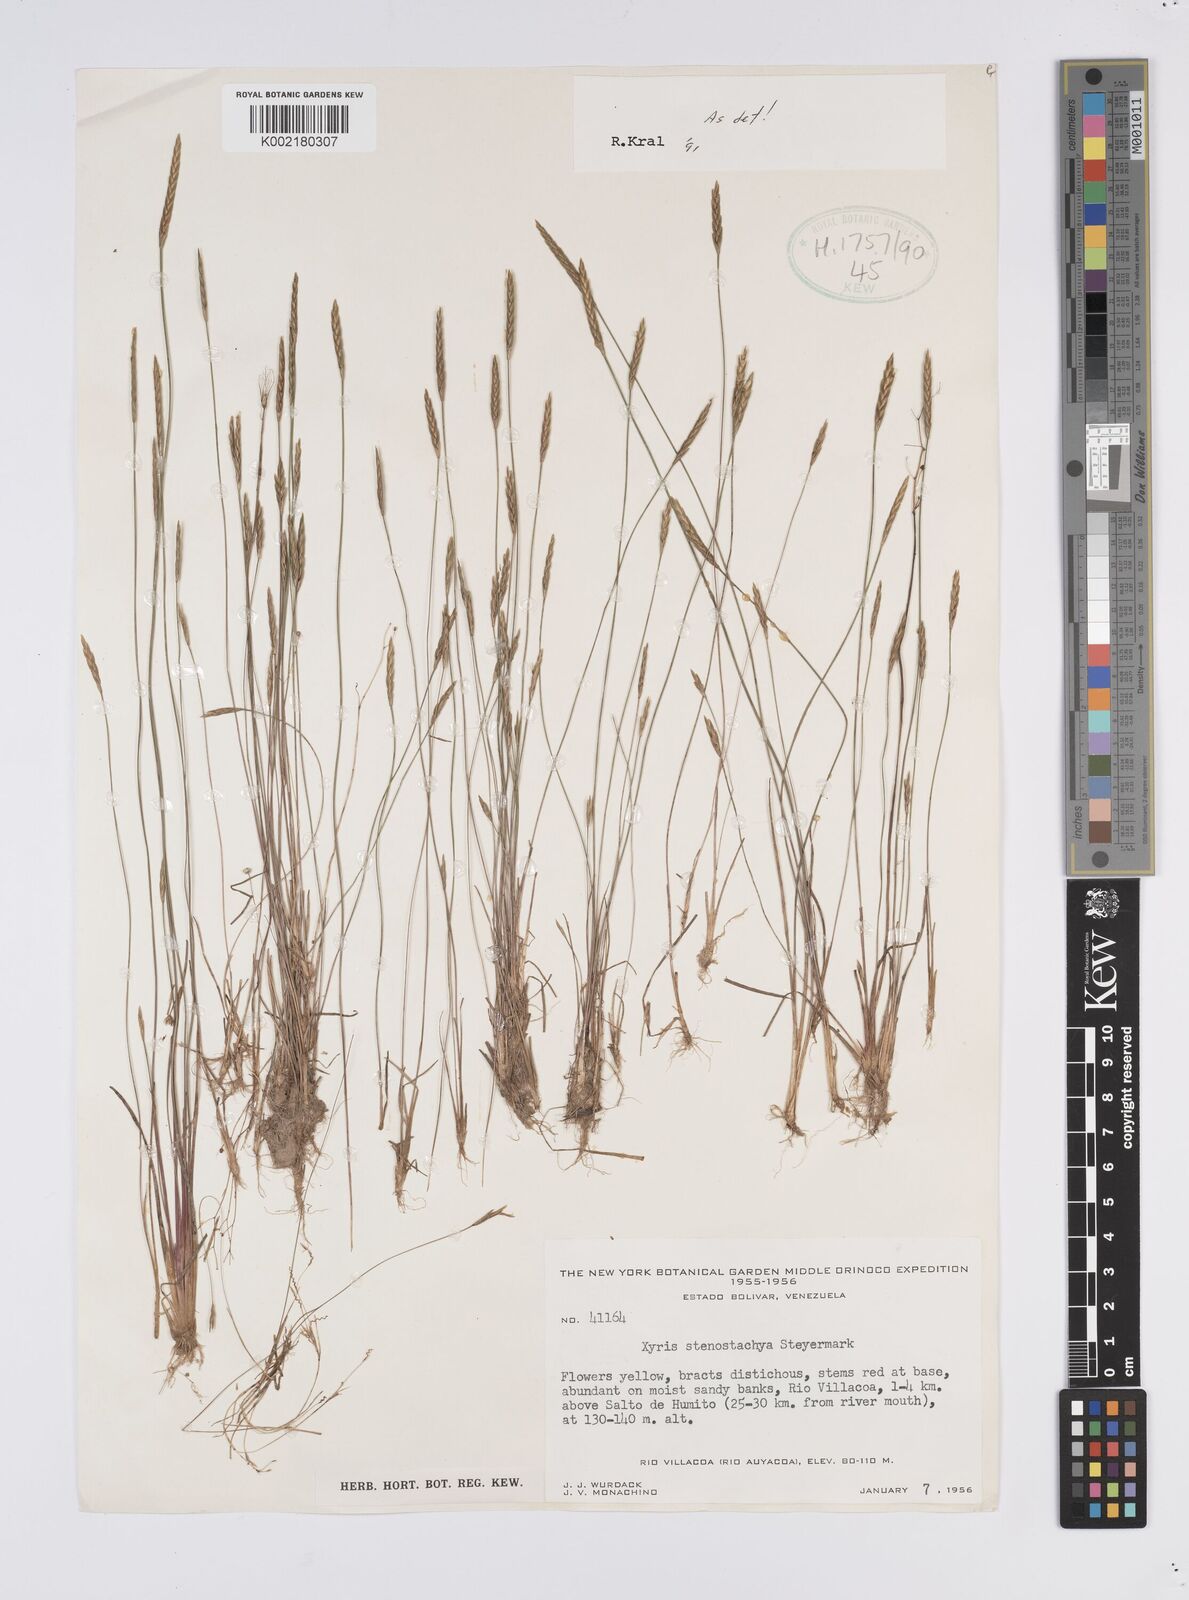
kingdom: Plantae
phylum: Tracheophyta
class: Liliopsida
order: Poales
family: Xyridaceae
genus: Xyris
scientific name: Xyris stenostachya
